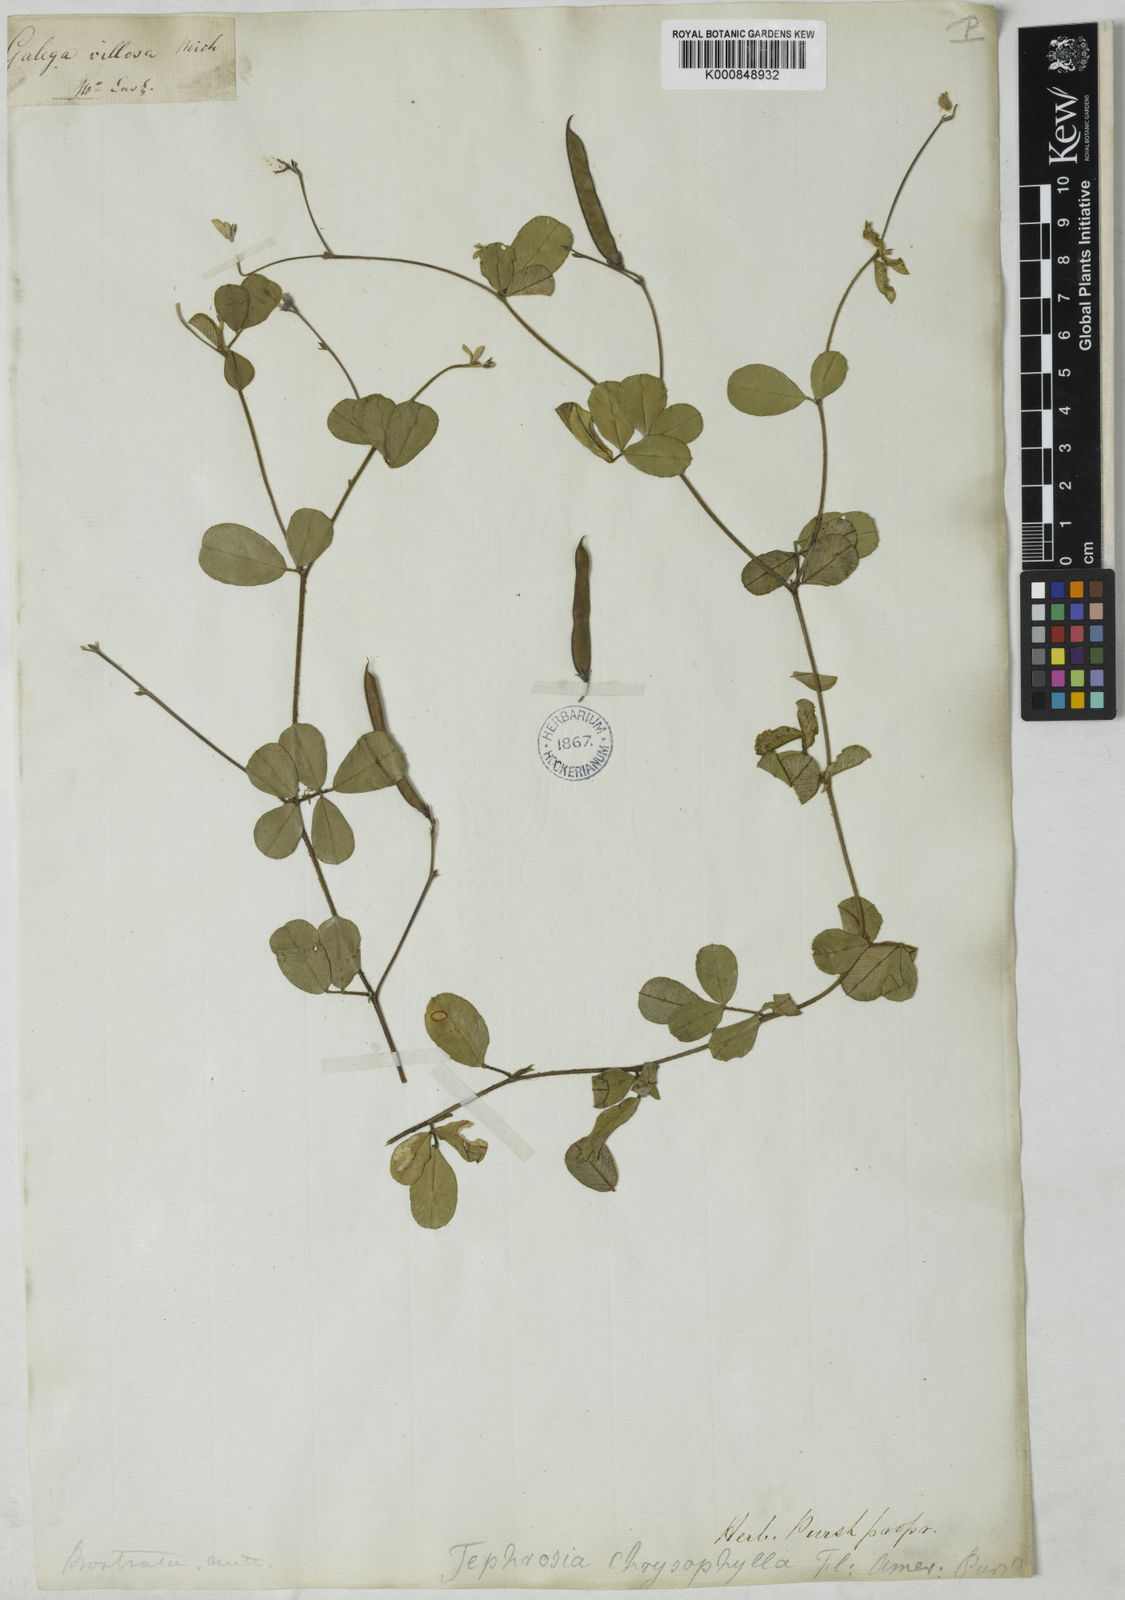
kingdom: Plantae
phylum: Tracheophyta
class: Magnoliopsida
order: Fabales
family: Fabaceae
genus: Tephrosia
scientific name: Tephrosia chrysophylla
